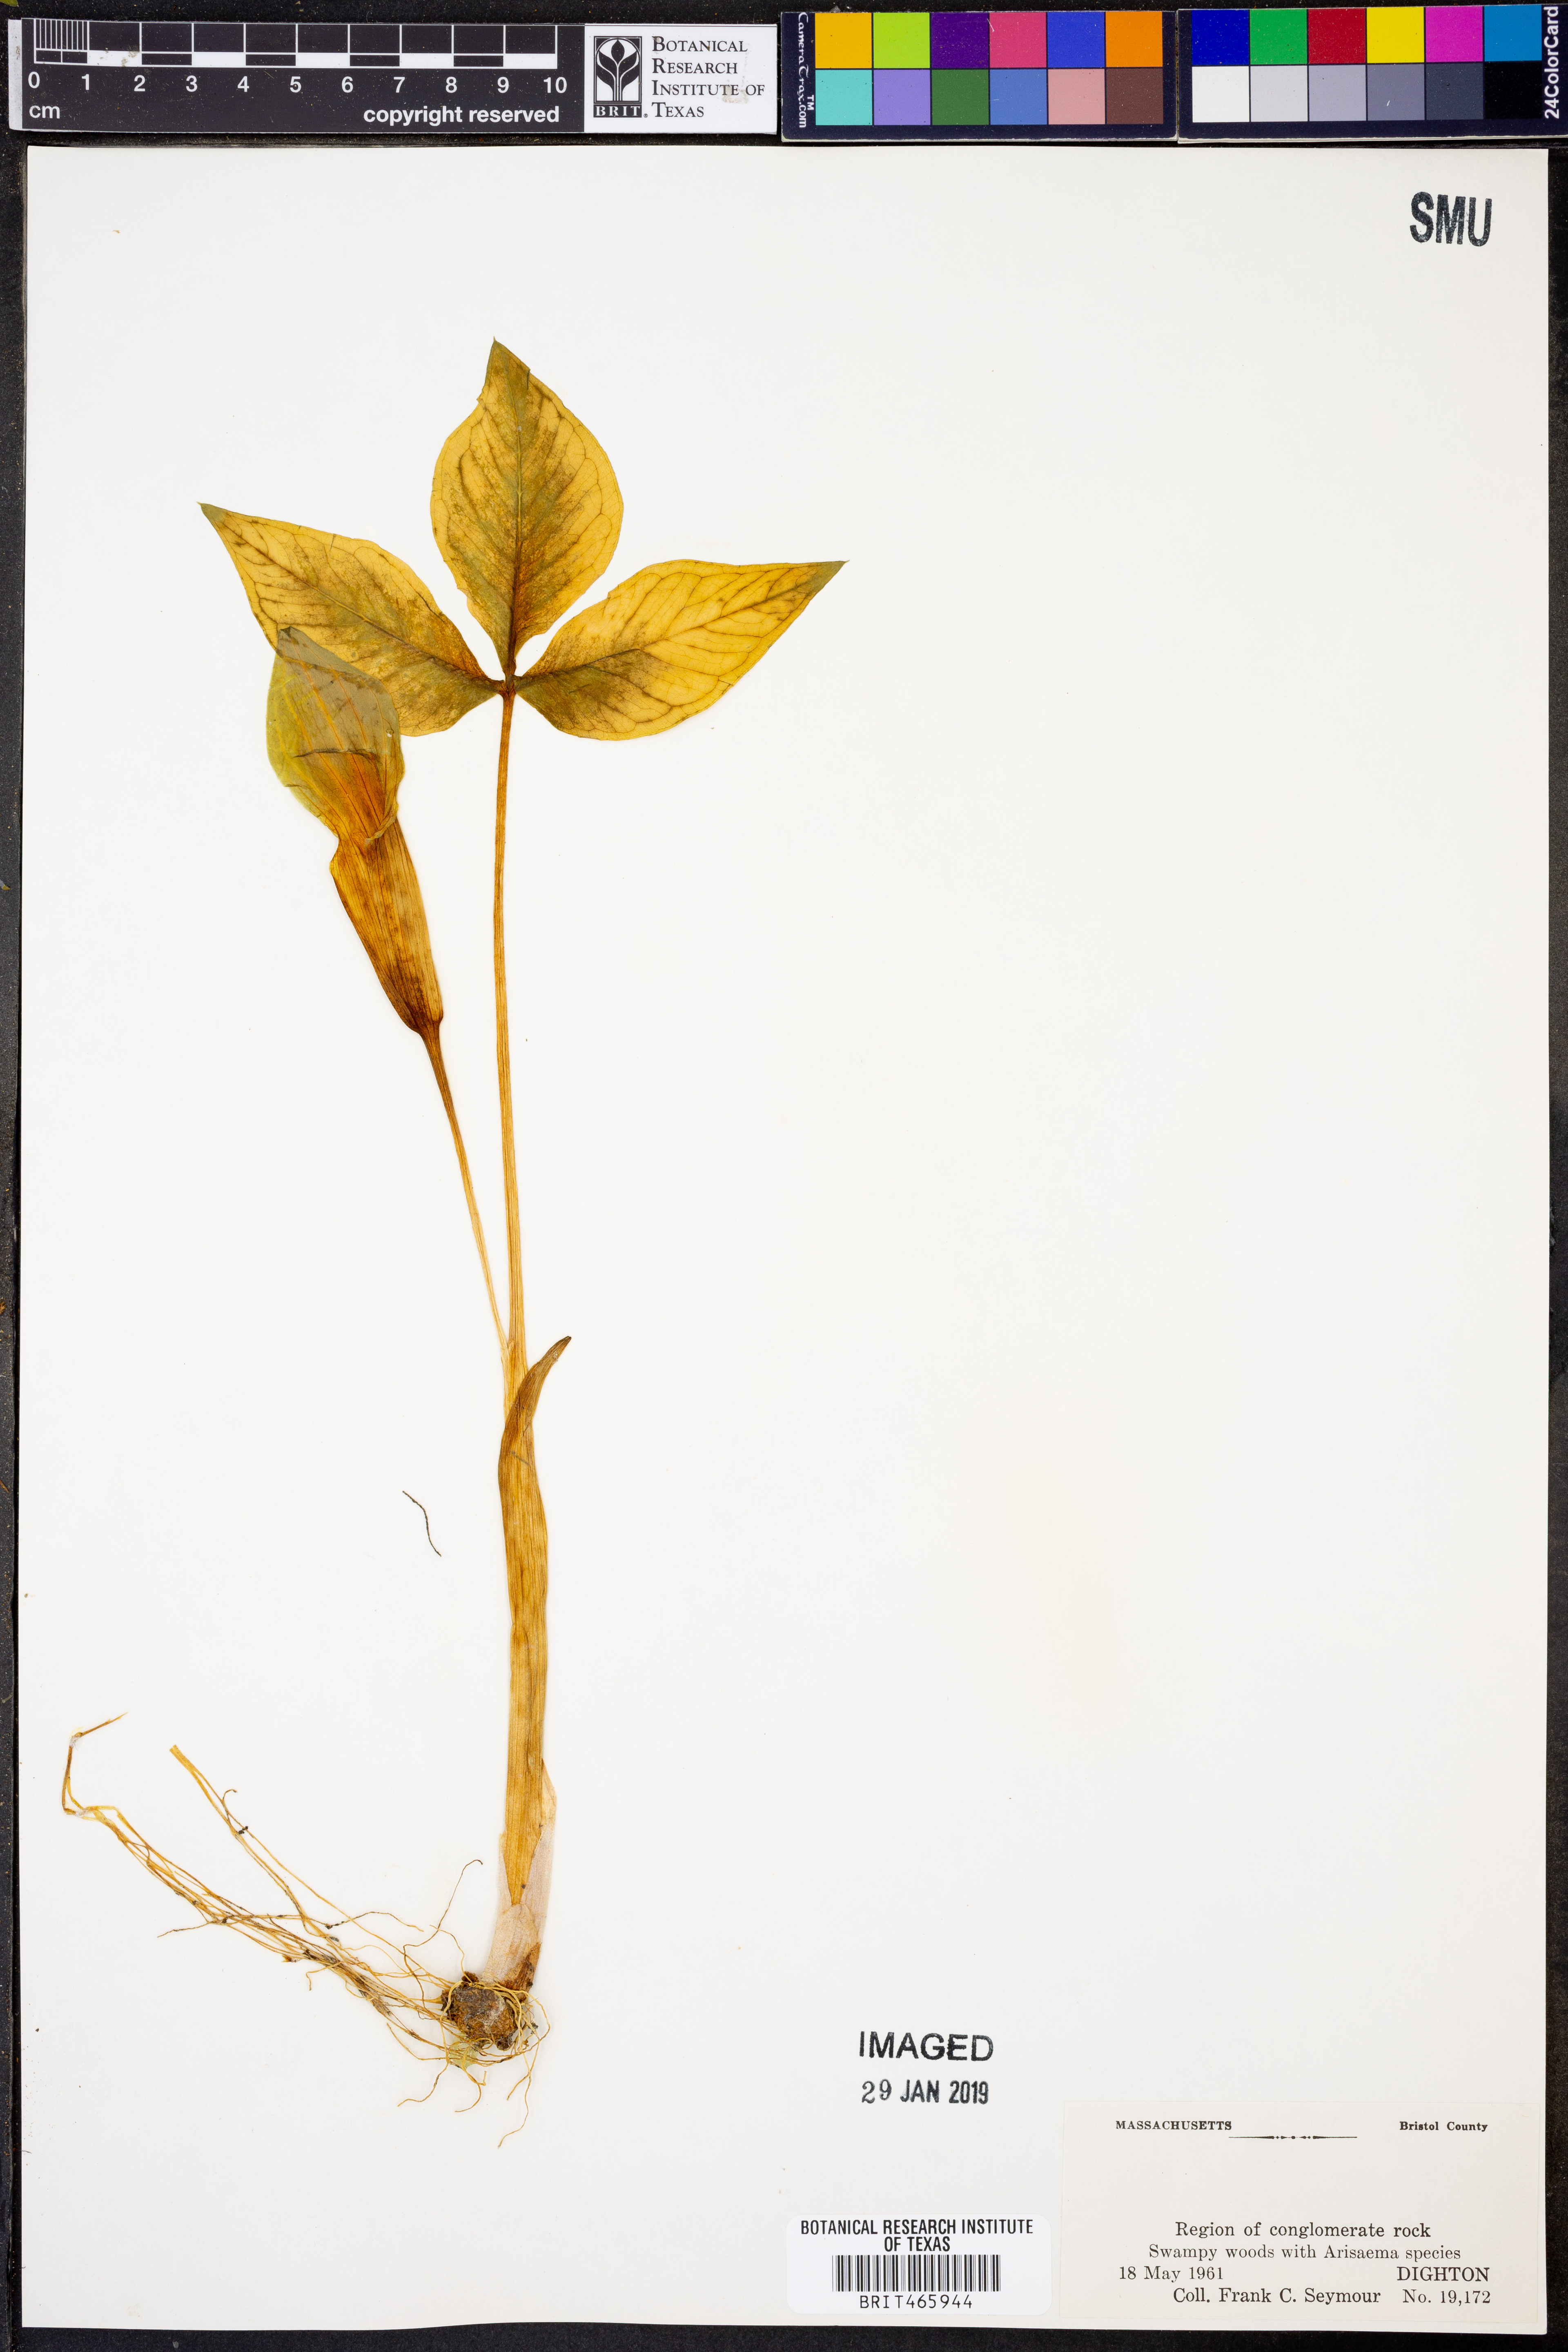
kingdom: Plantae
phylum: Tracheophyta
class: Liliopsida
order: Alismatales
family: Araceae
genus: Arisaema
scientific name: Arisaema triphyllum
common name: Jack-in-the-pulpit
